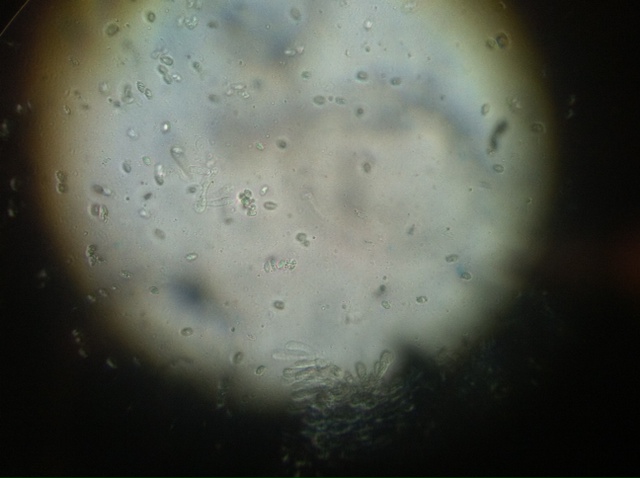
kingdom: Fungi
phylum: Basidiomycota
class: Agaricomycetes
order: Agaricales
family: Tricholomataceae
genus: Clitocybe
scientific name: Clitocybe diatreta
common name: kødfarvet tragthat
